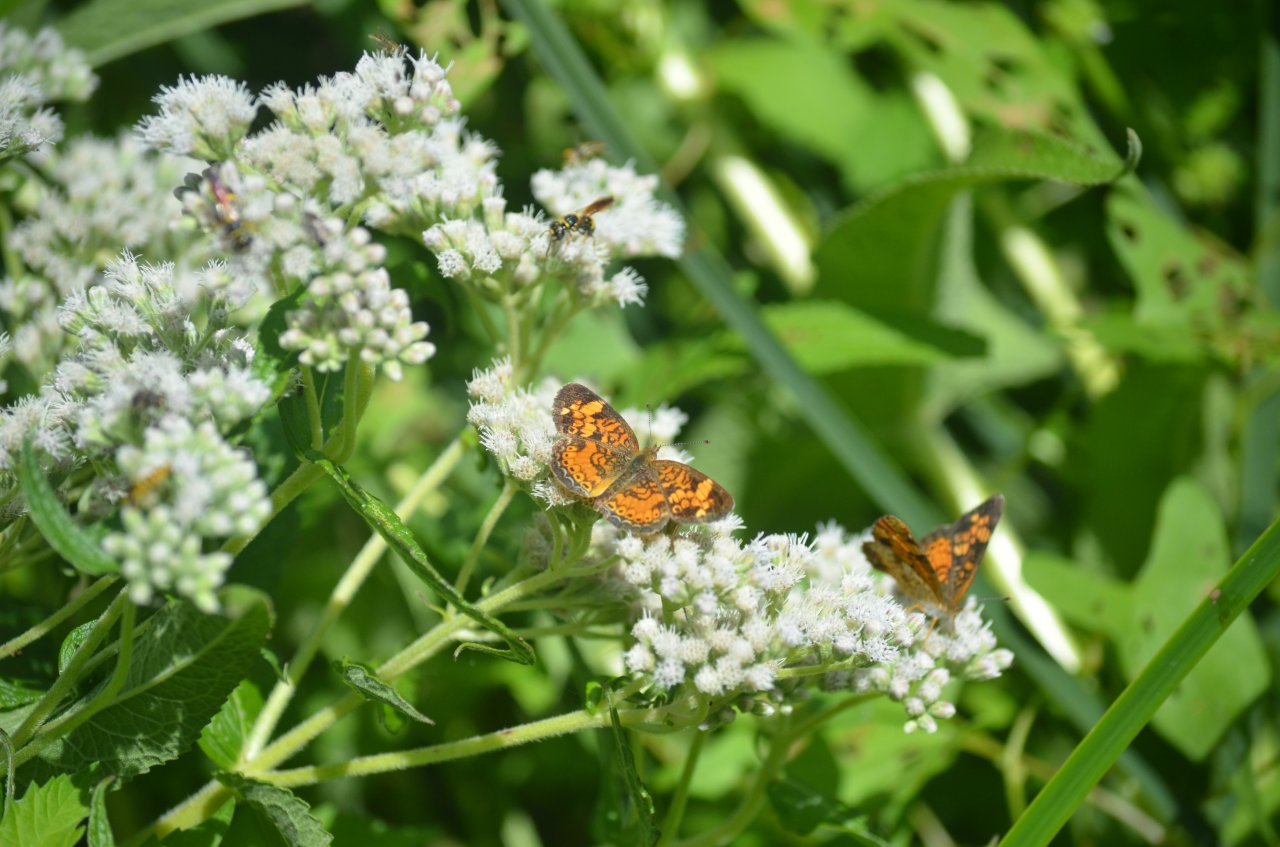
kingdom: Animalia
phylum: Arthropoda
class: Insecta
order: Lepidoptera
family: Nymphalidae
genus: Phyciodes
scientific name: Phyciodes tharos
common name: Northern Crescent
